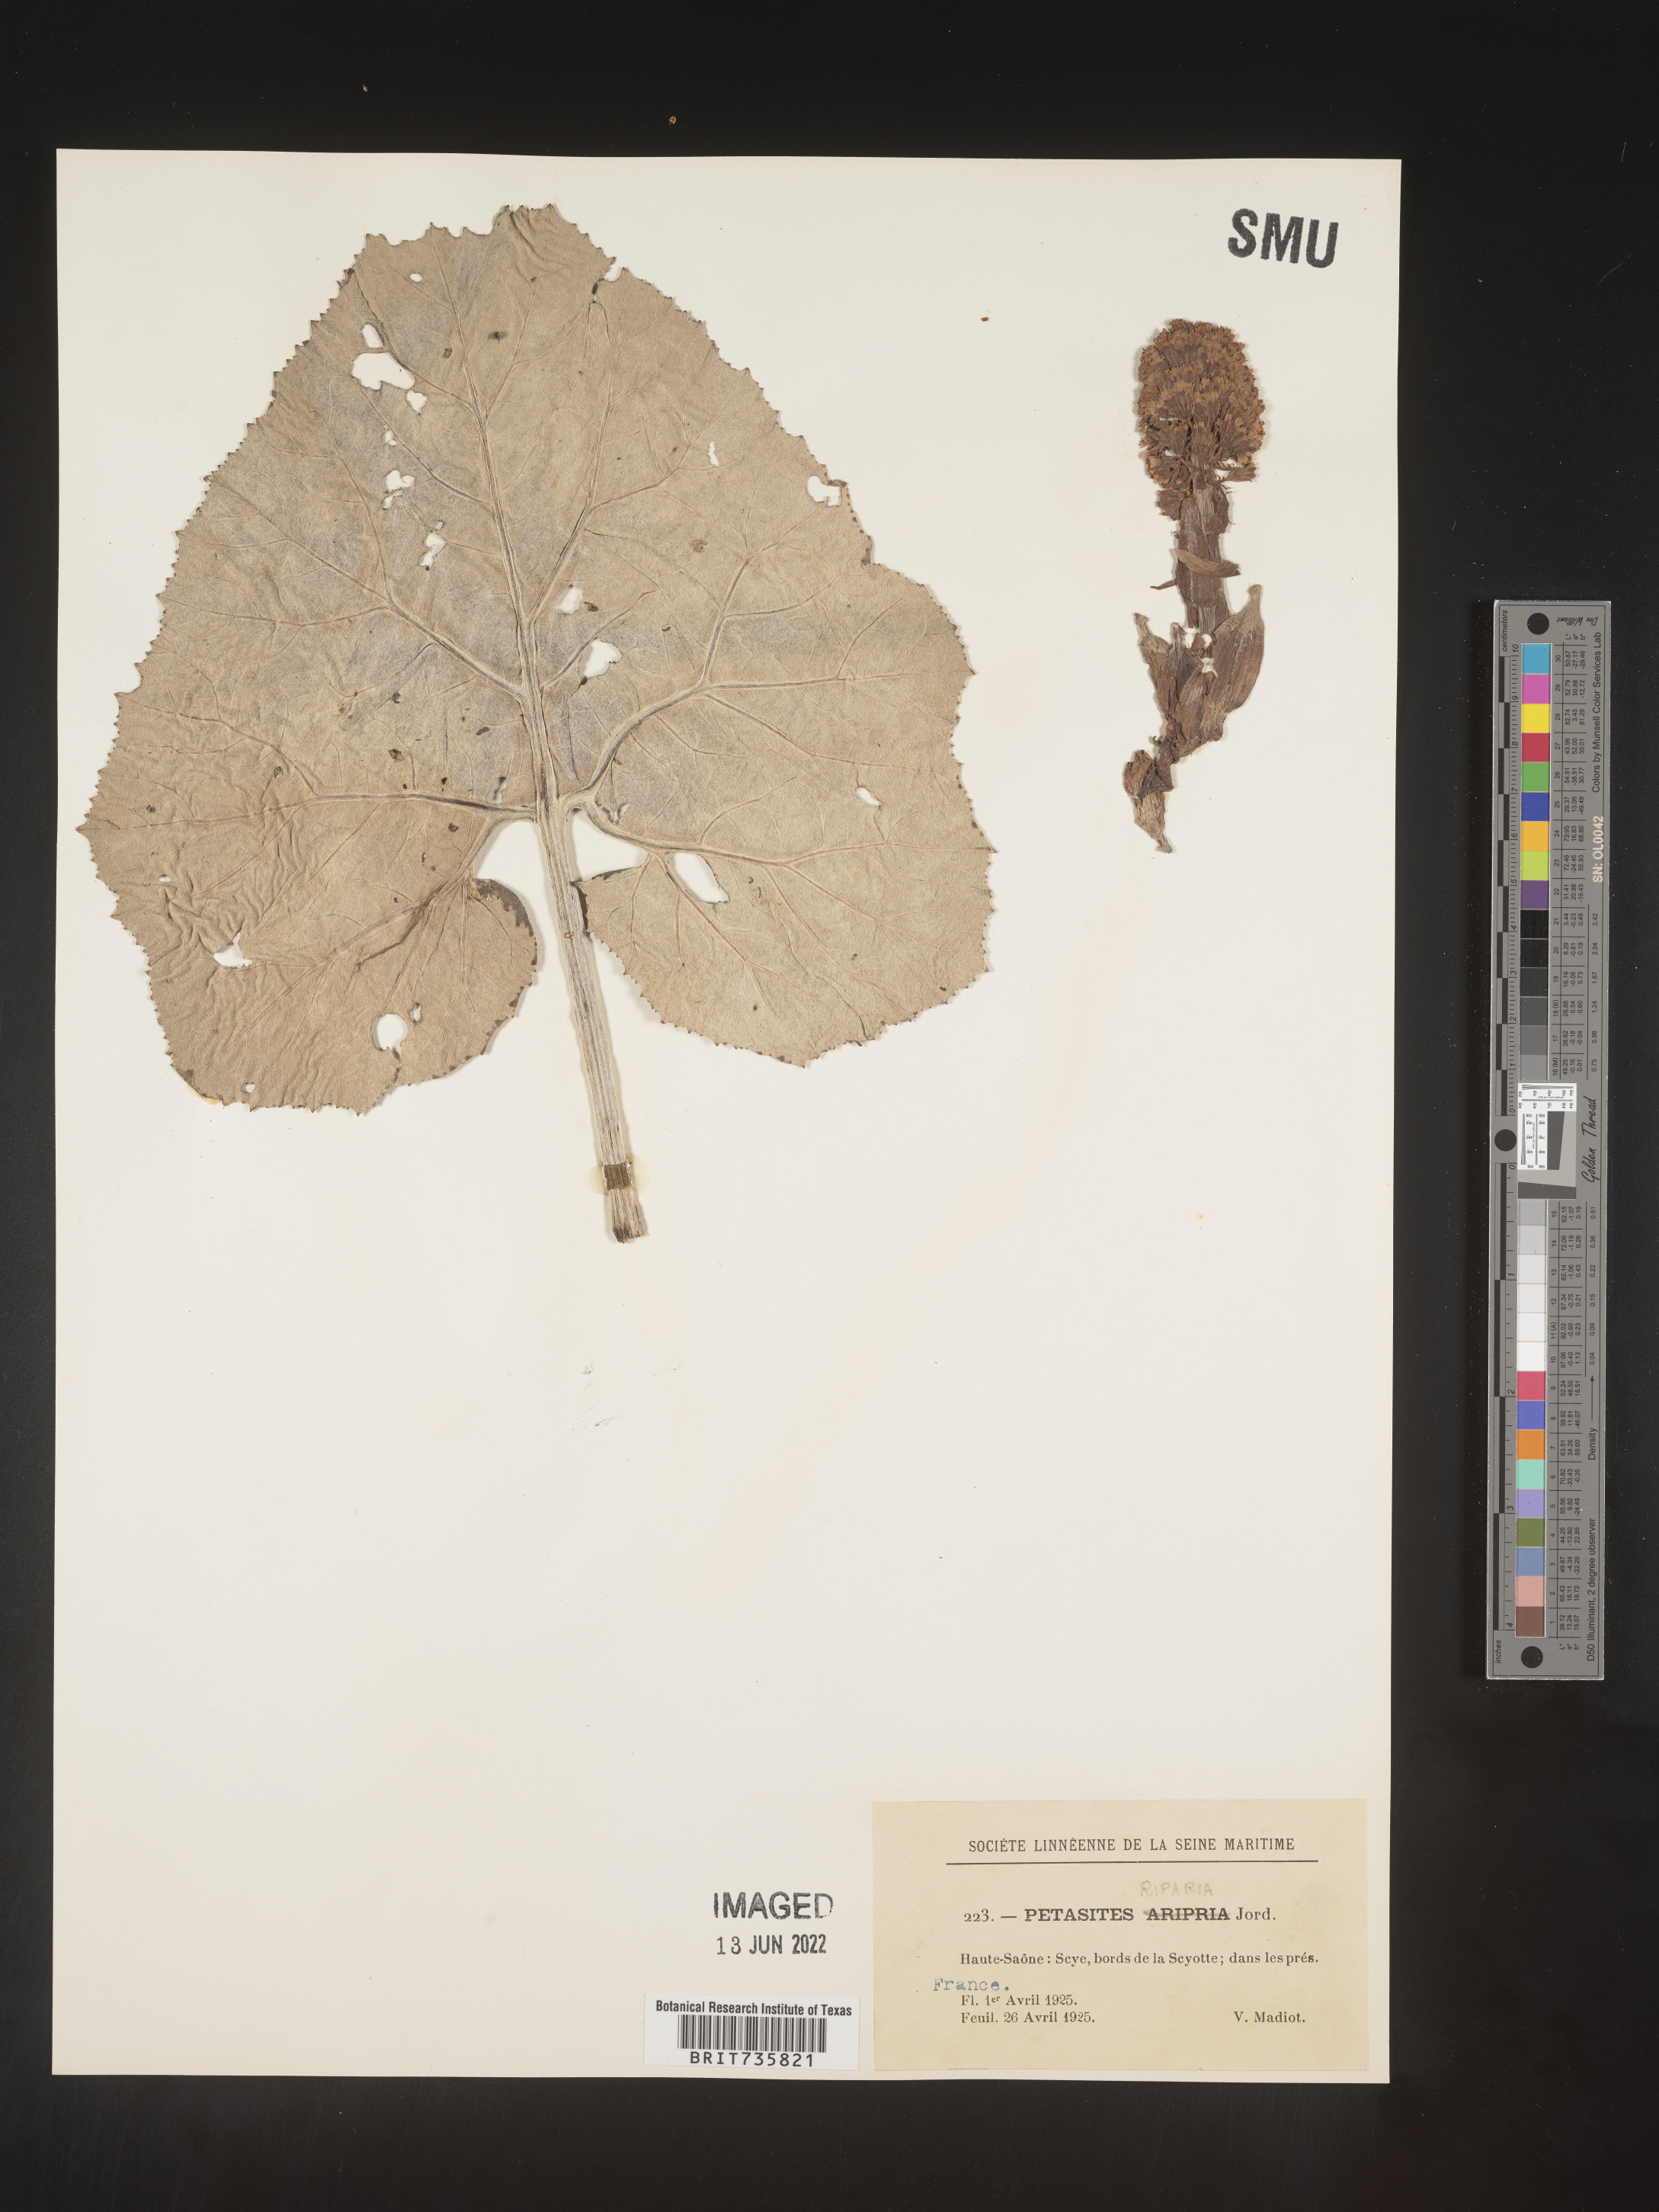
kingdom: Plantae
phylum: Tracheophyta
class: Magnoliopsida
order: Asterales
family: Asteraceae
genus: Petasites
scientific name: Petasites
